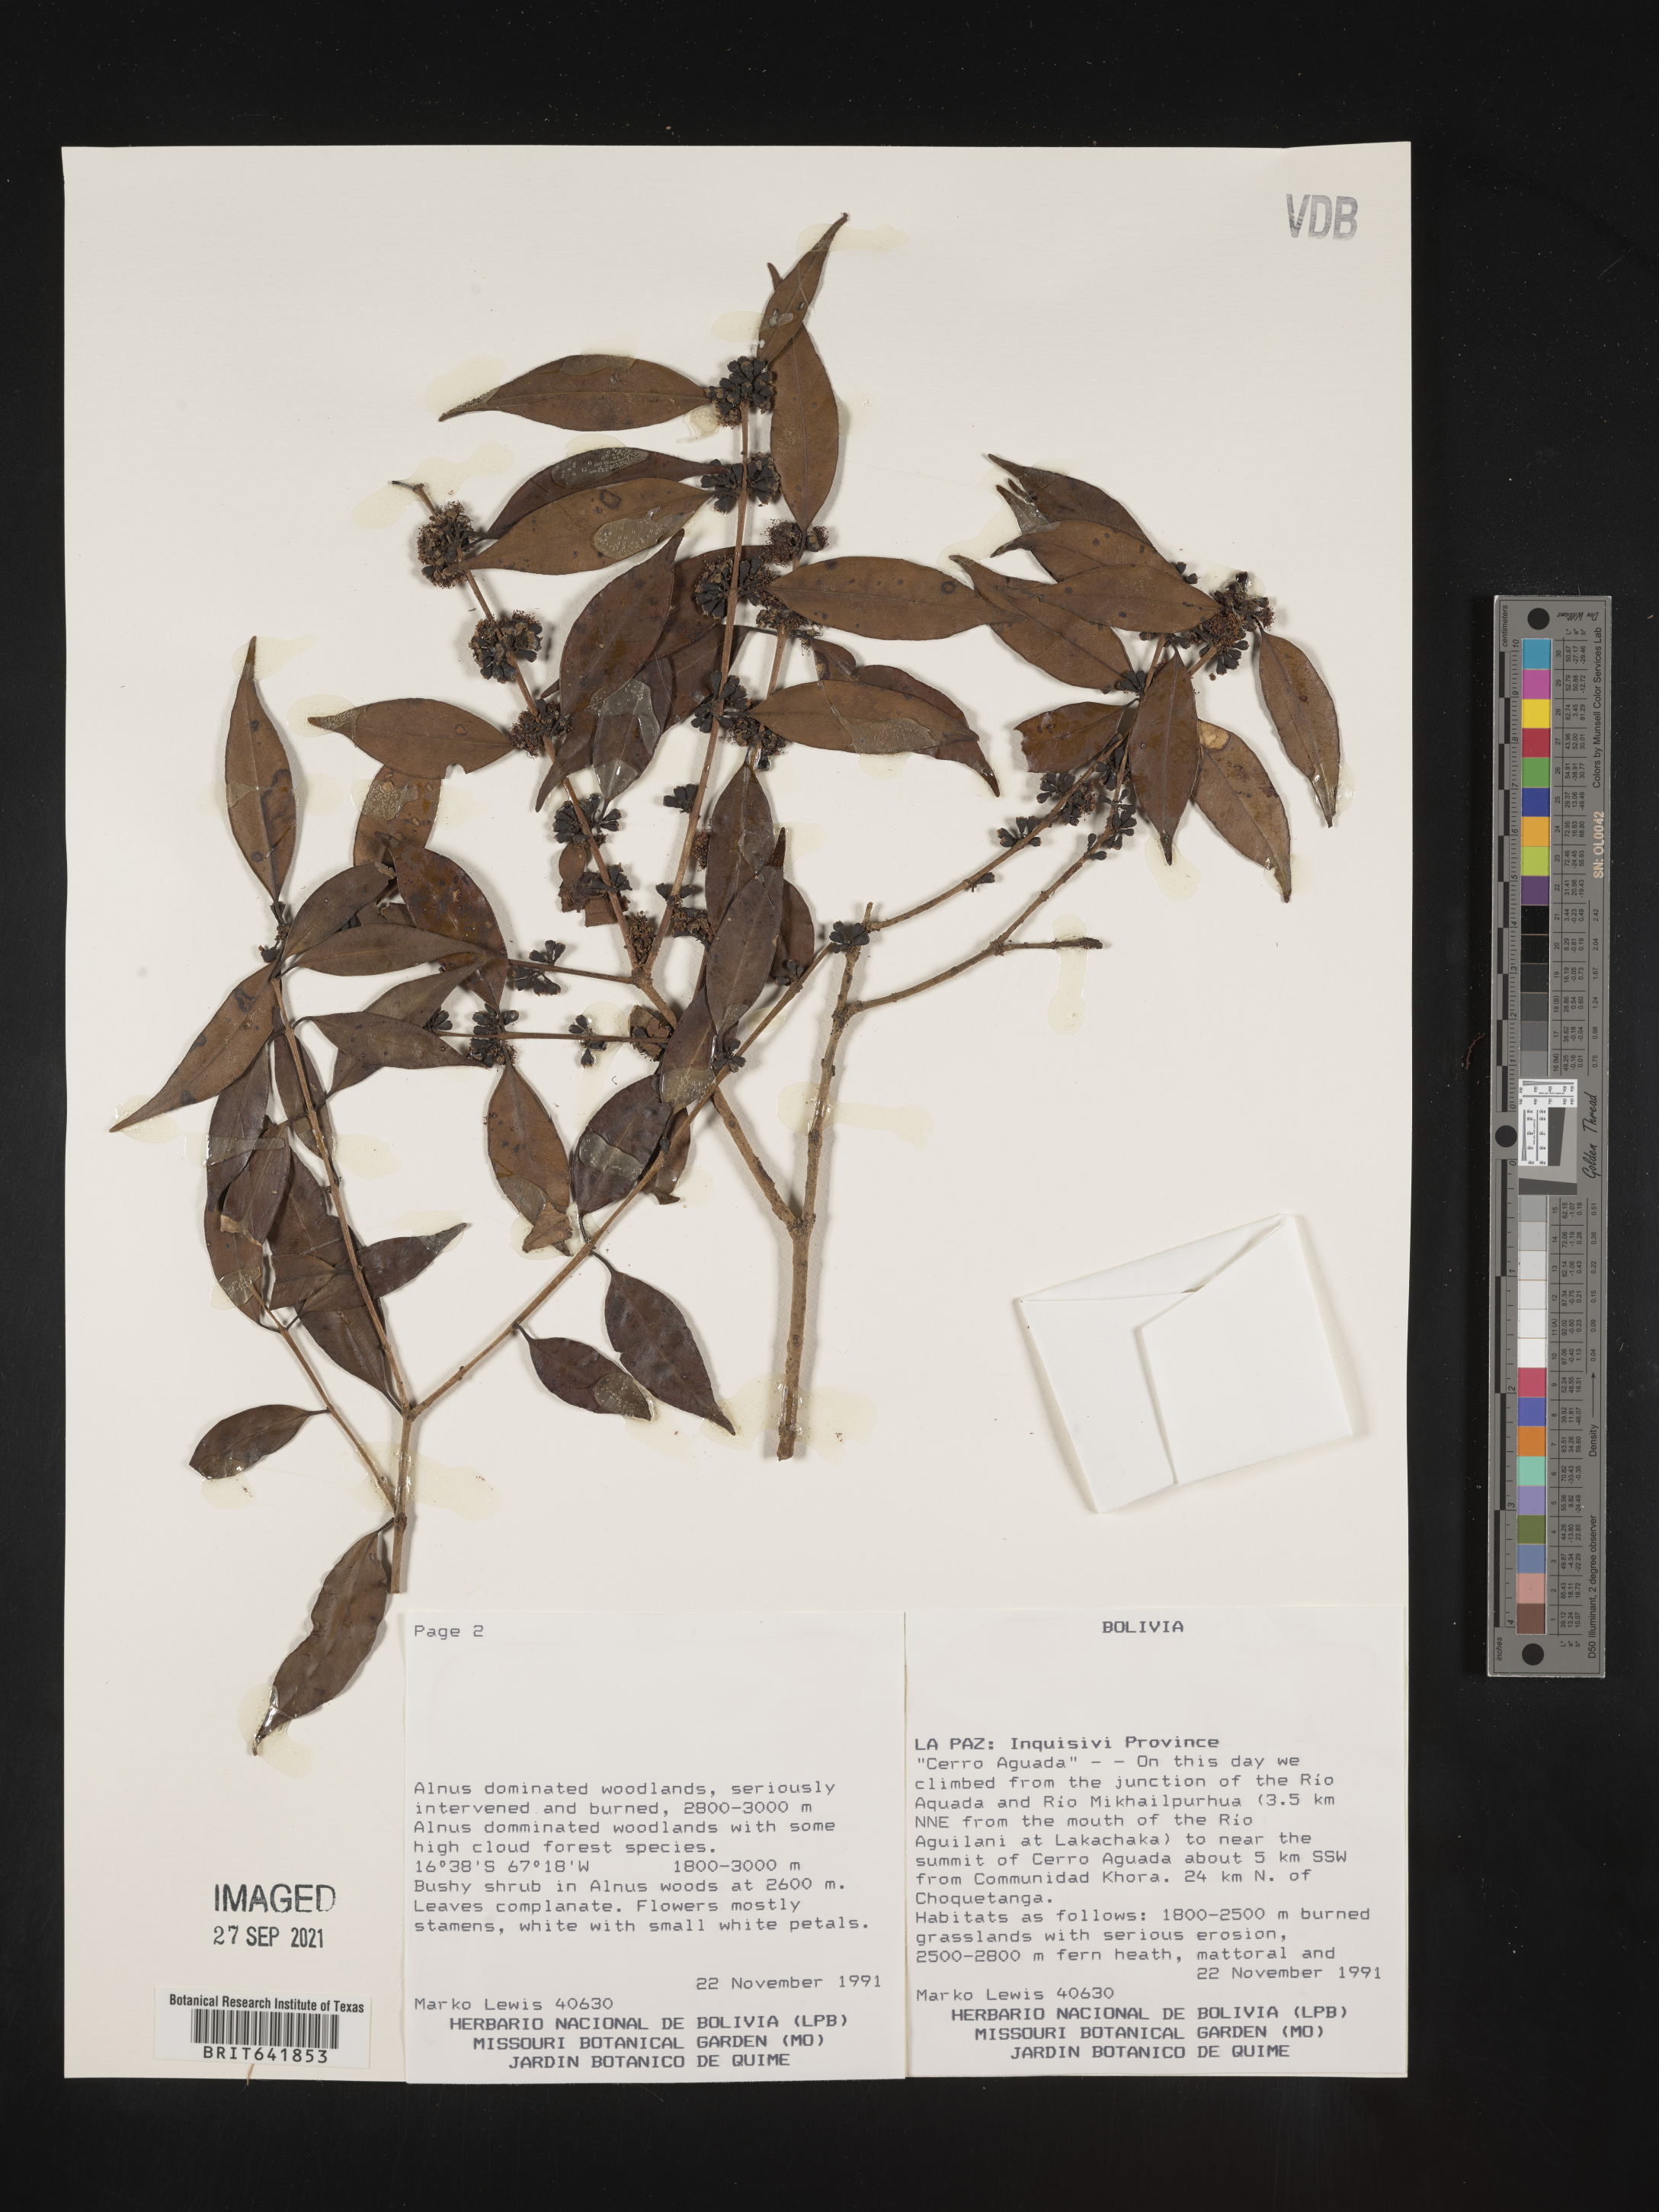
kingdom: Plantae
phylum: Tracheophyta
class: Magnoliopsida
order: Gentianales
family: Rubiaceae
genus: Warszewiczia
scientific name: Warszewiczia
